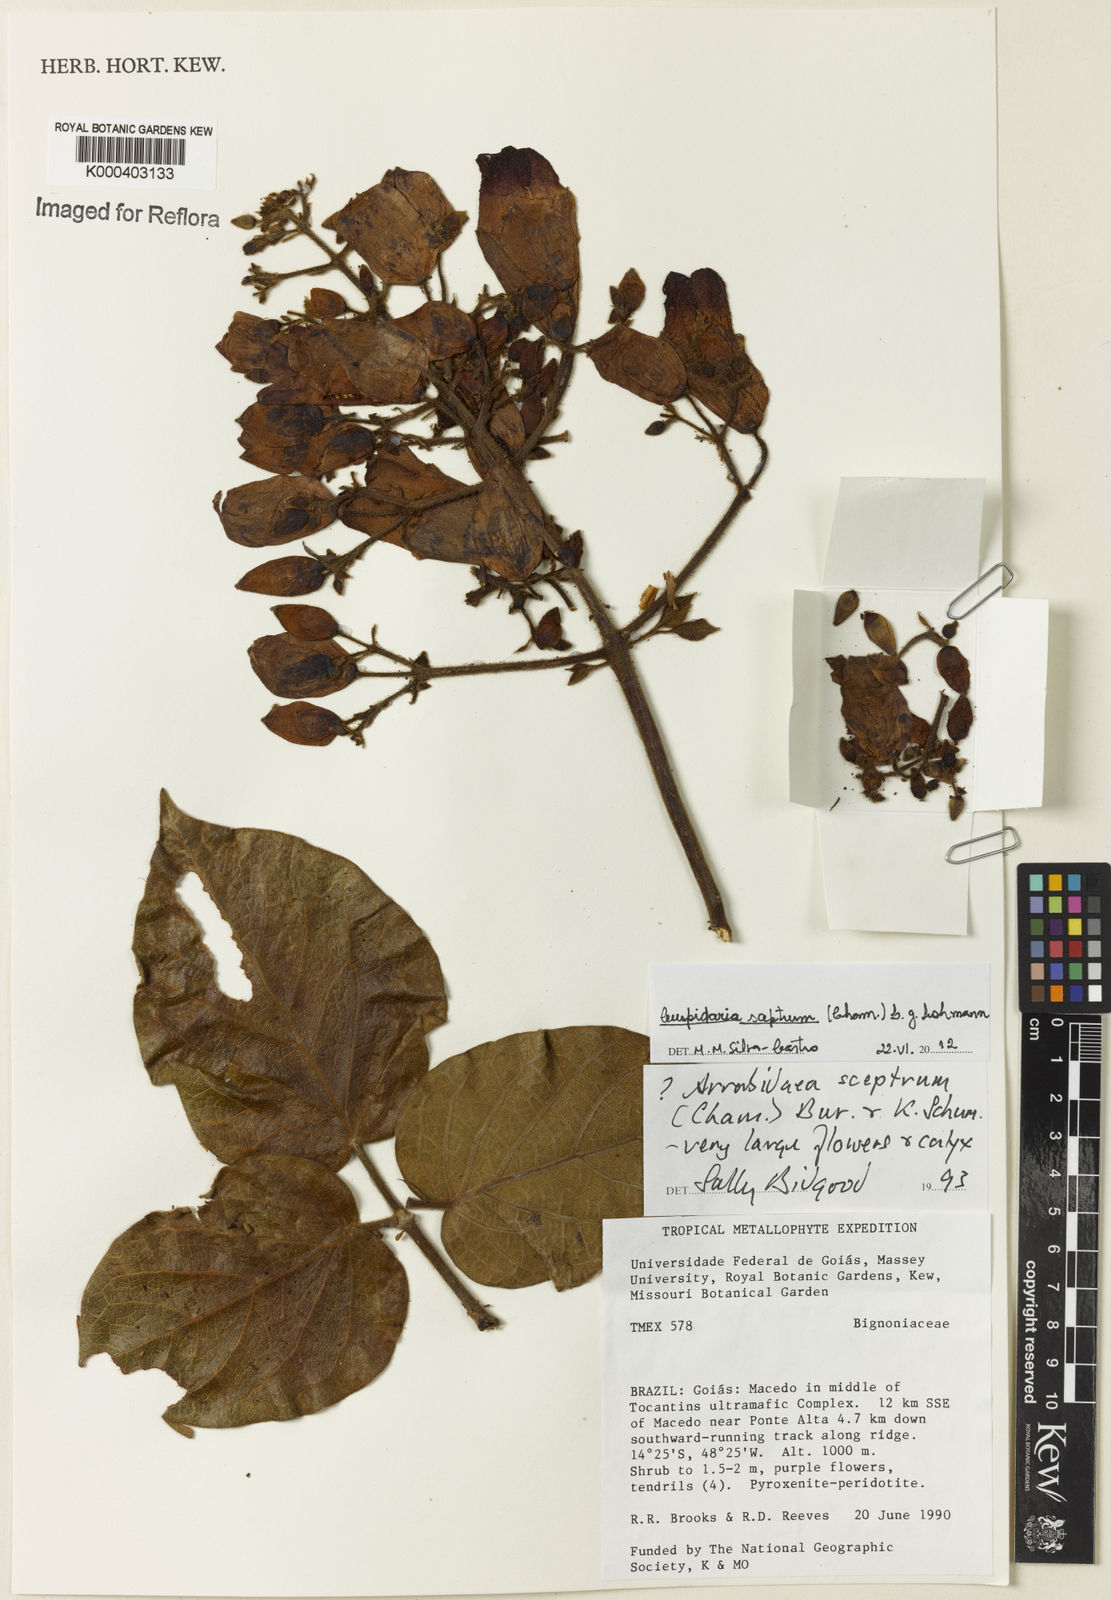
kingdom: Plantae
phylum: Tracheophyta
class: Magnoliopsida
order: Lamiales
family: Bignoniaceae
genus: Cuspidaria
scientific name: Cuspidaria sceptrum
